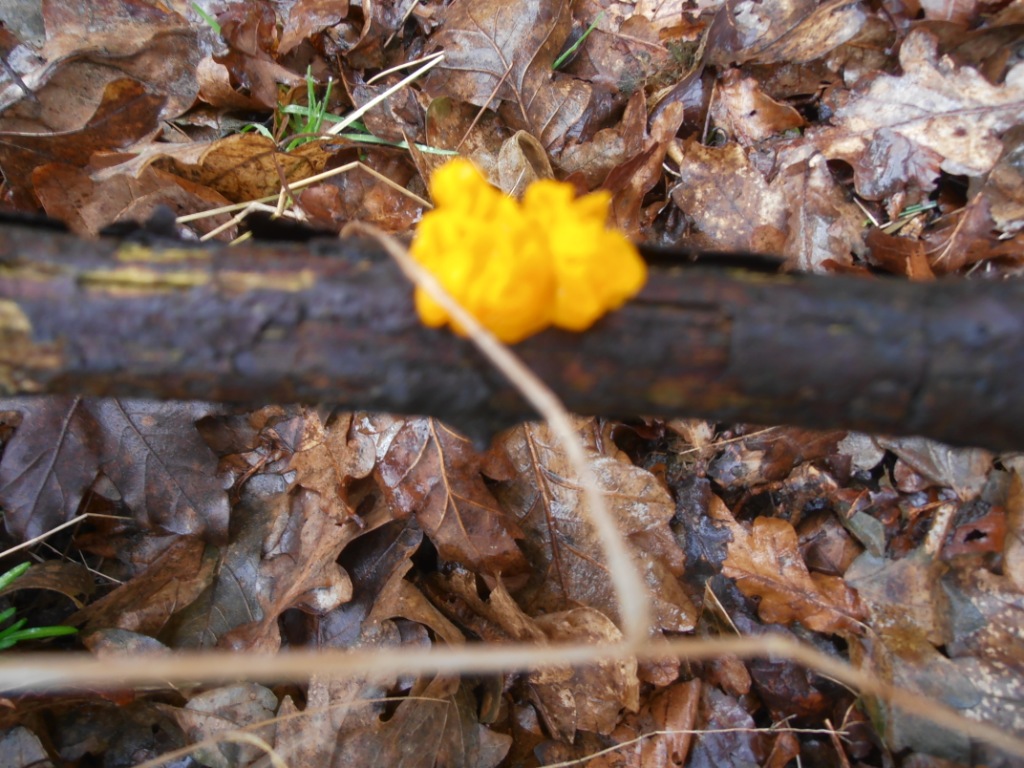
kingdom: Fungi
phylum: Basidiomycota
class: Tremellomycetes
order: Tremellales
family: Tremellaceae
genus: Tremella
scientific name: Tremella mesenterica
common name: gul bævresvamp
